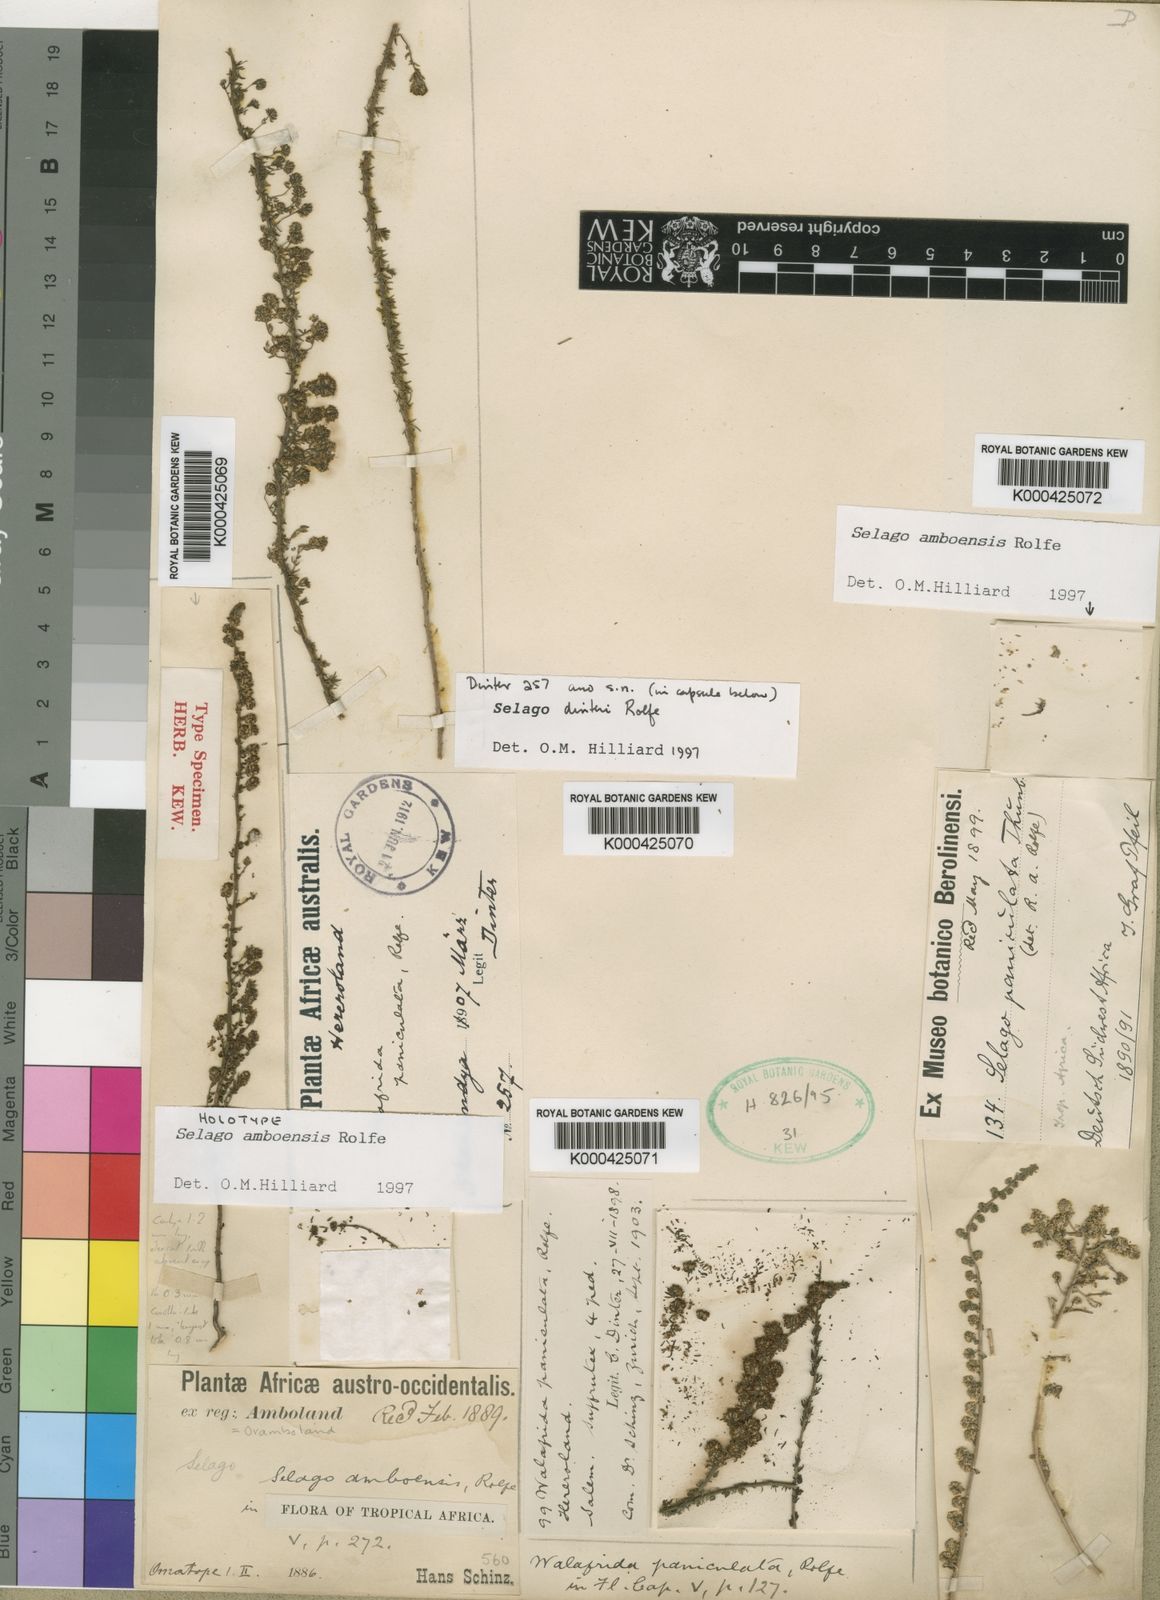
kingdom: Plantae
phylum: Tracheophyta
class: Magnoliopsida
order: Lamiales
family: Scrophulariaceae
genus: Selago
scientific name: Selago amboensis
